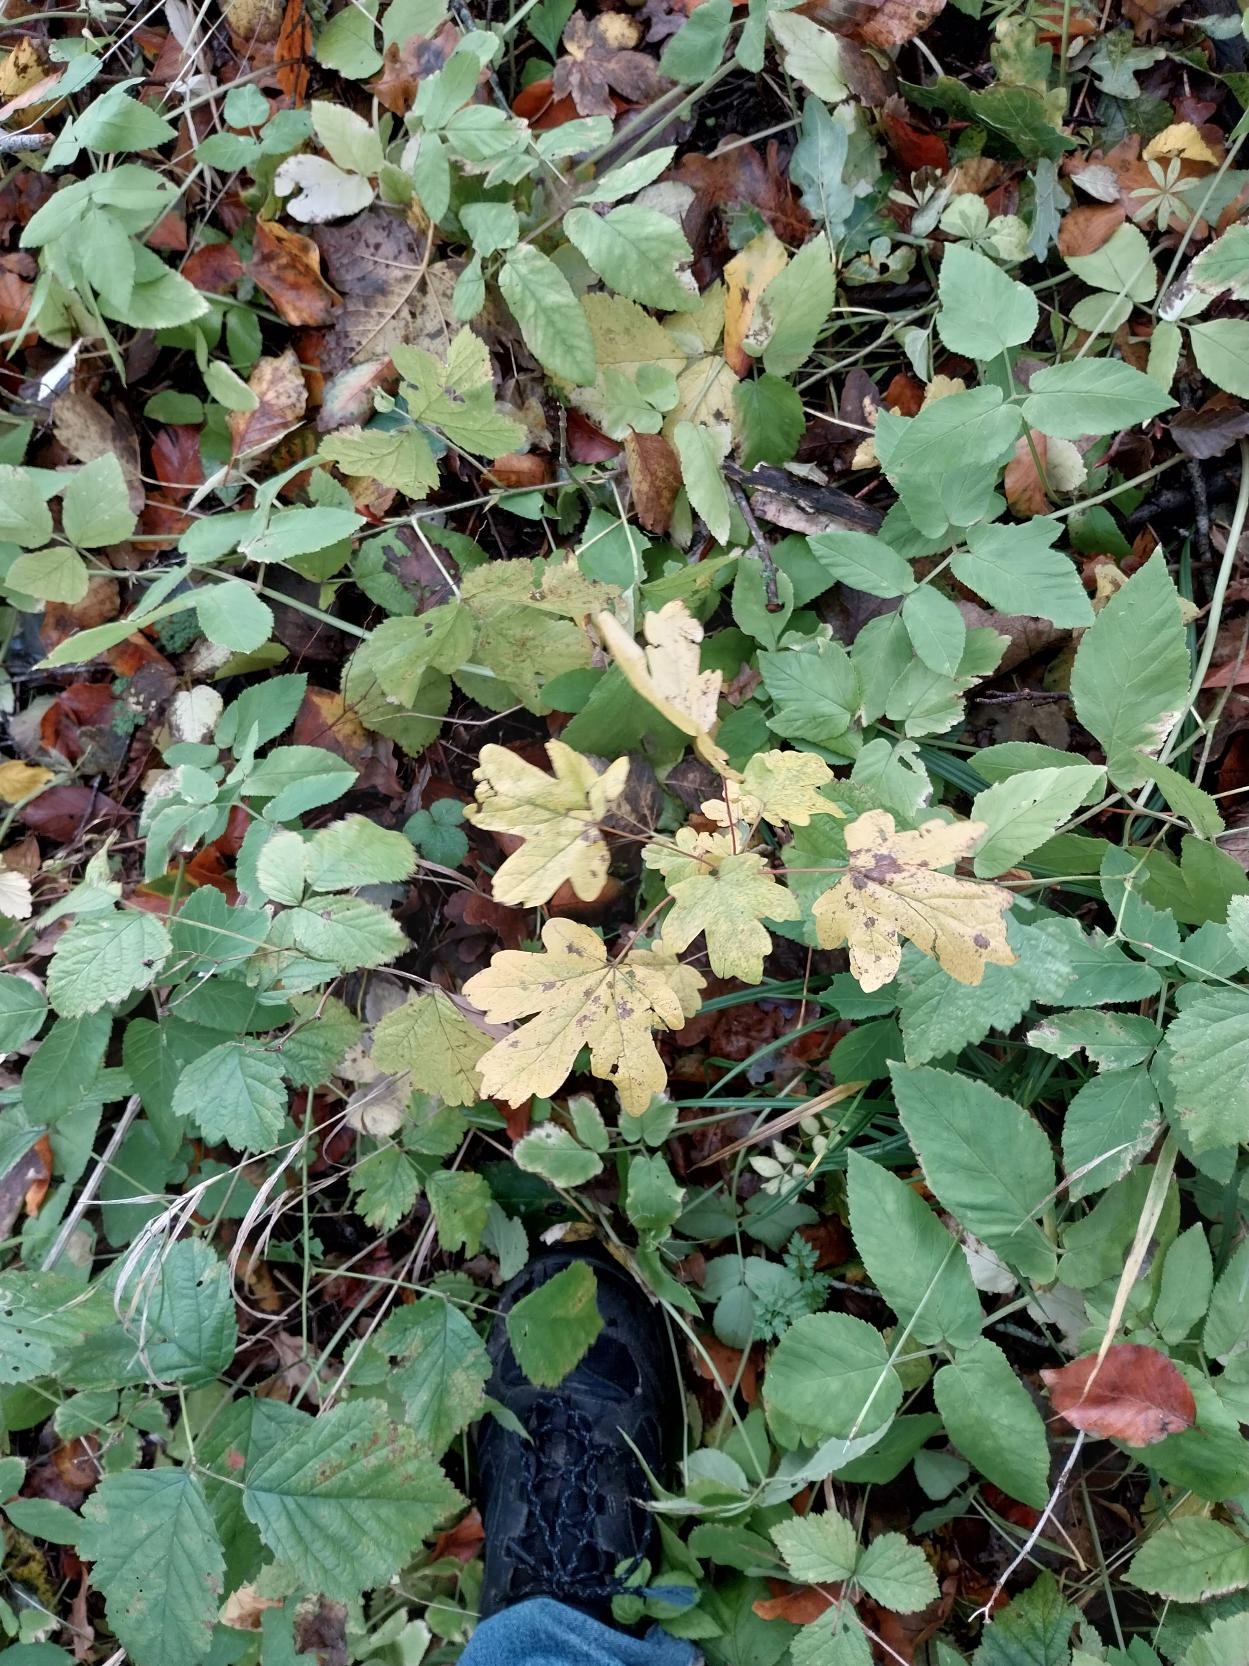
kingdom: Plantae
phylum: Tracheophyta
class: Magnoliopsida
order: Sapindales
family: Sapindaceae
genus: Acer
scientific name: Acer campestre
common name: Navr
